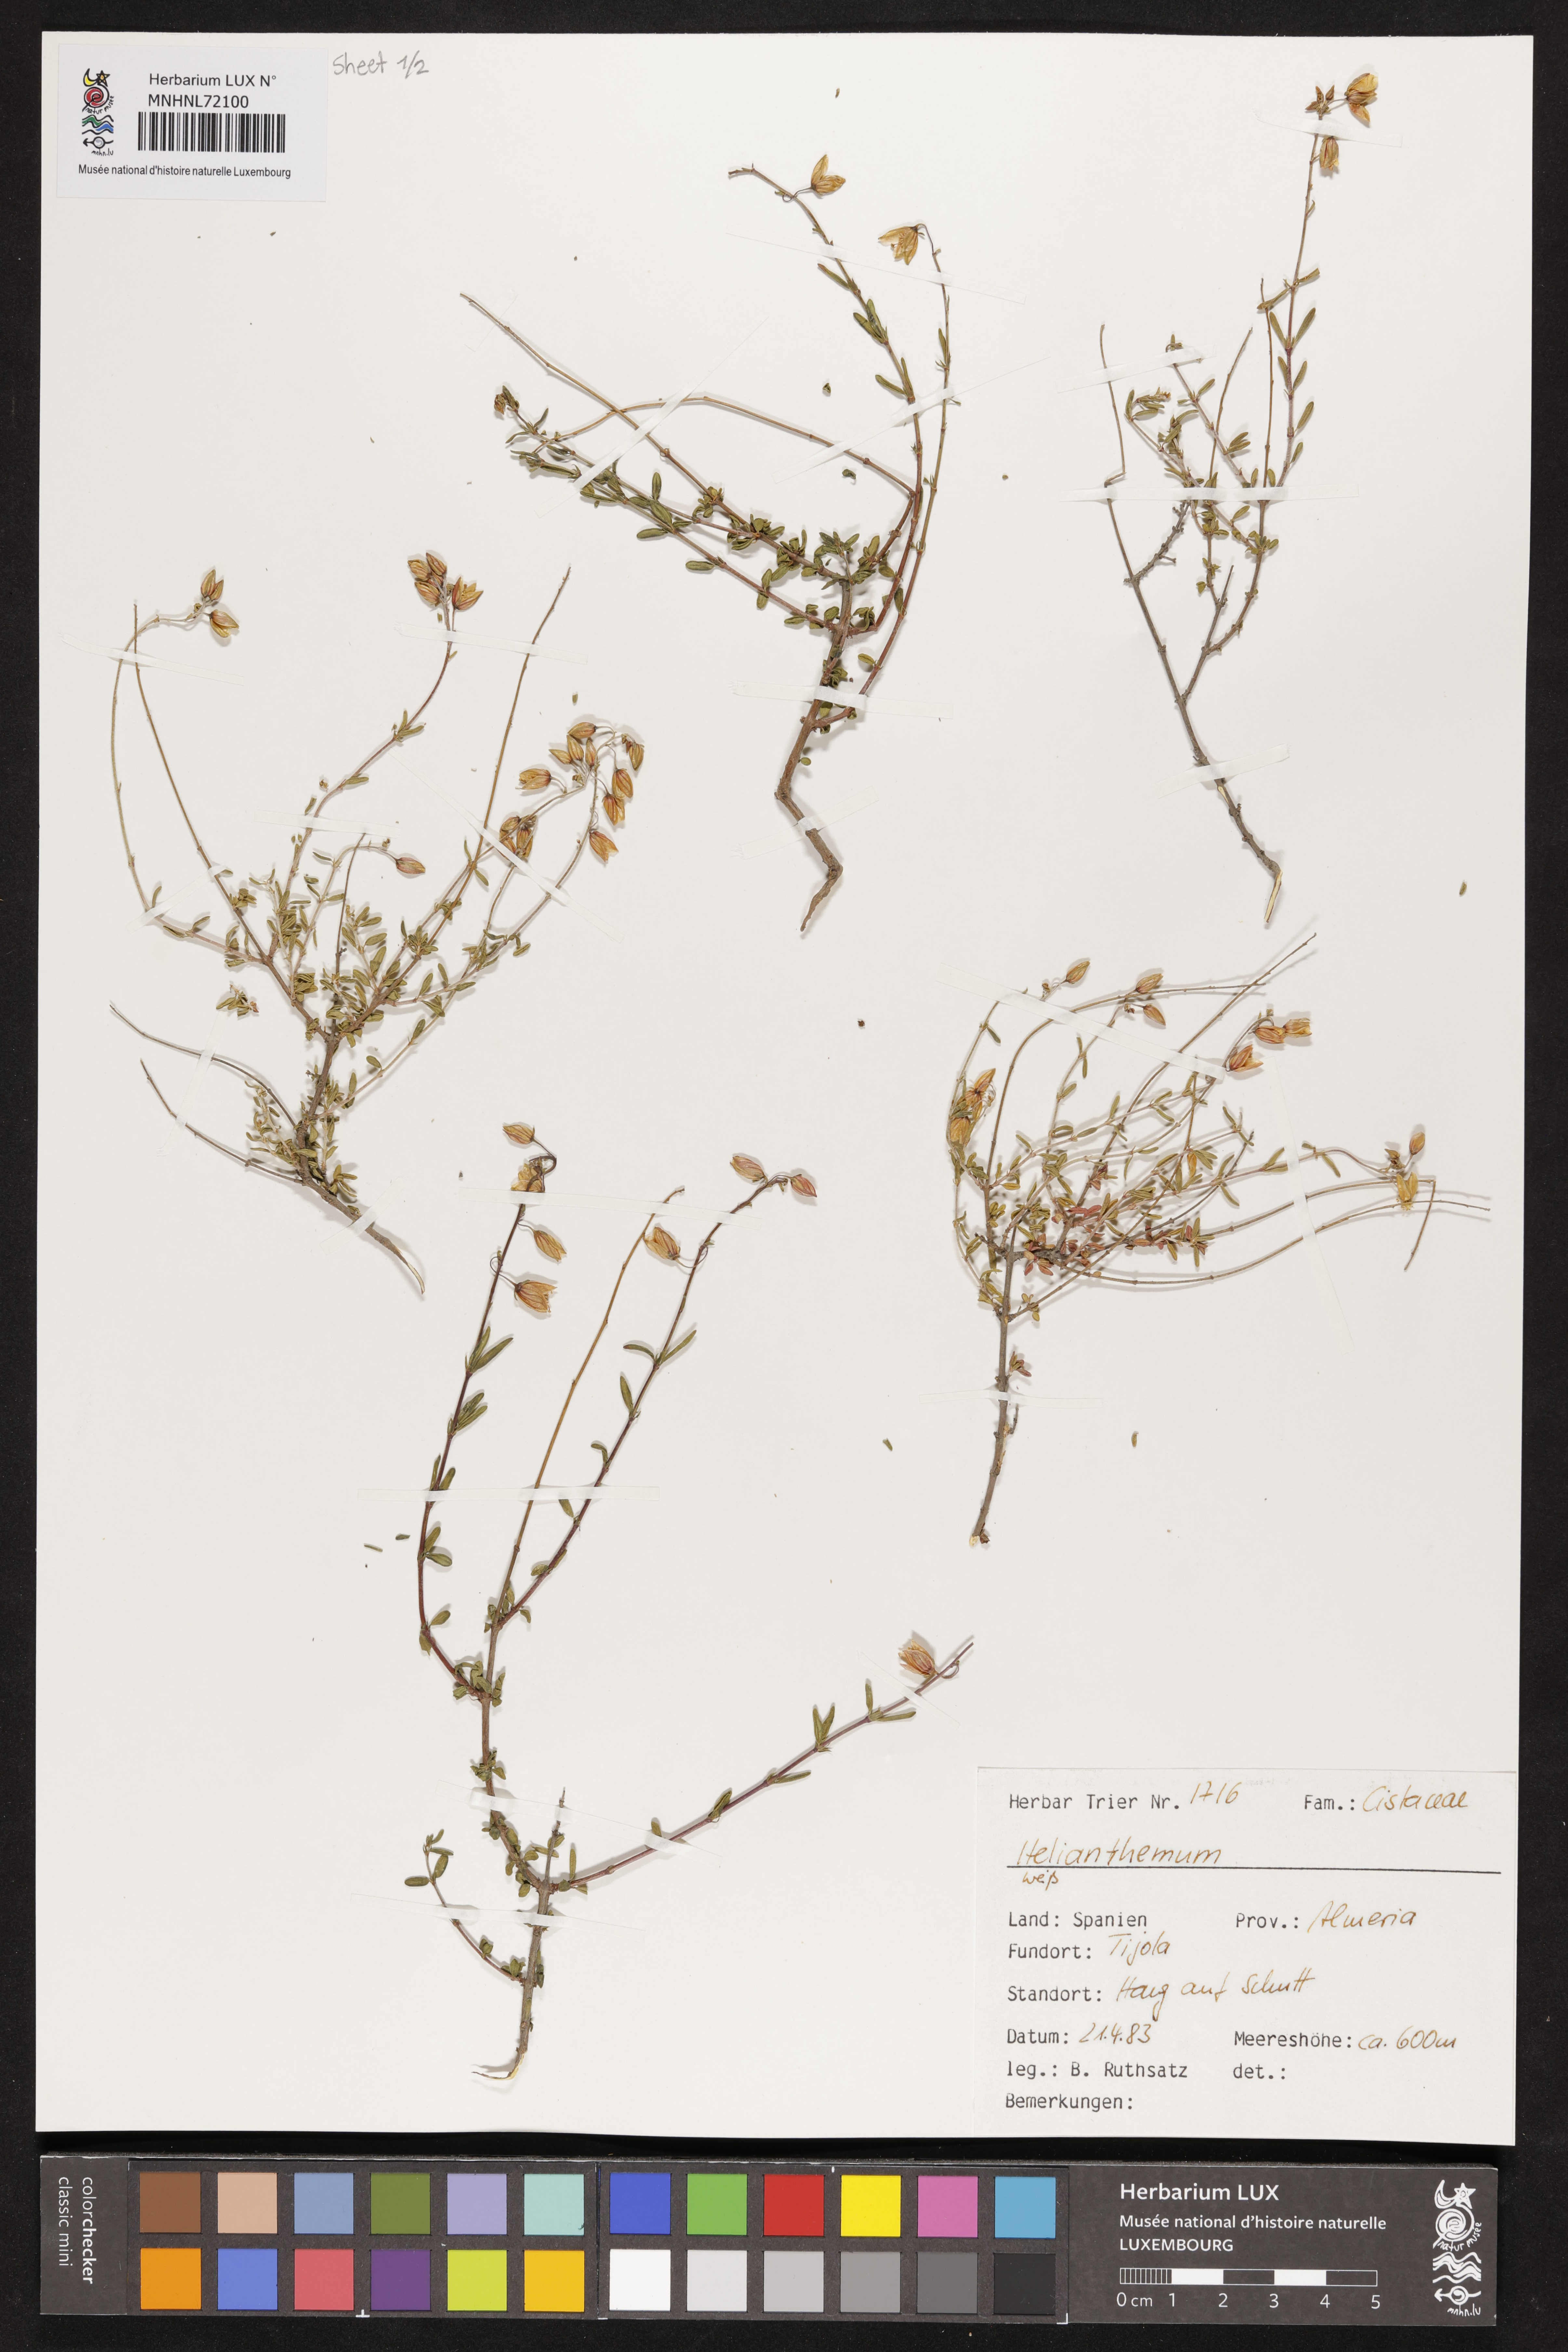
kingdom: Plantae
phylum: Tracheophyta
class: Magnoliopsida
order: Malvales
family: Cistaceae
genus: Helianthemum
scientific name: Helianthemum
